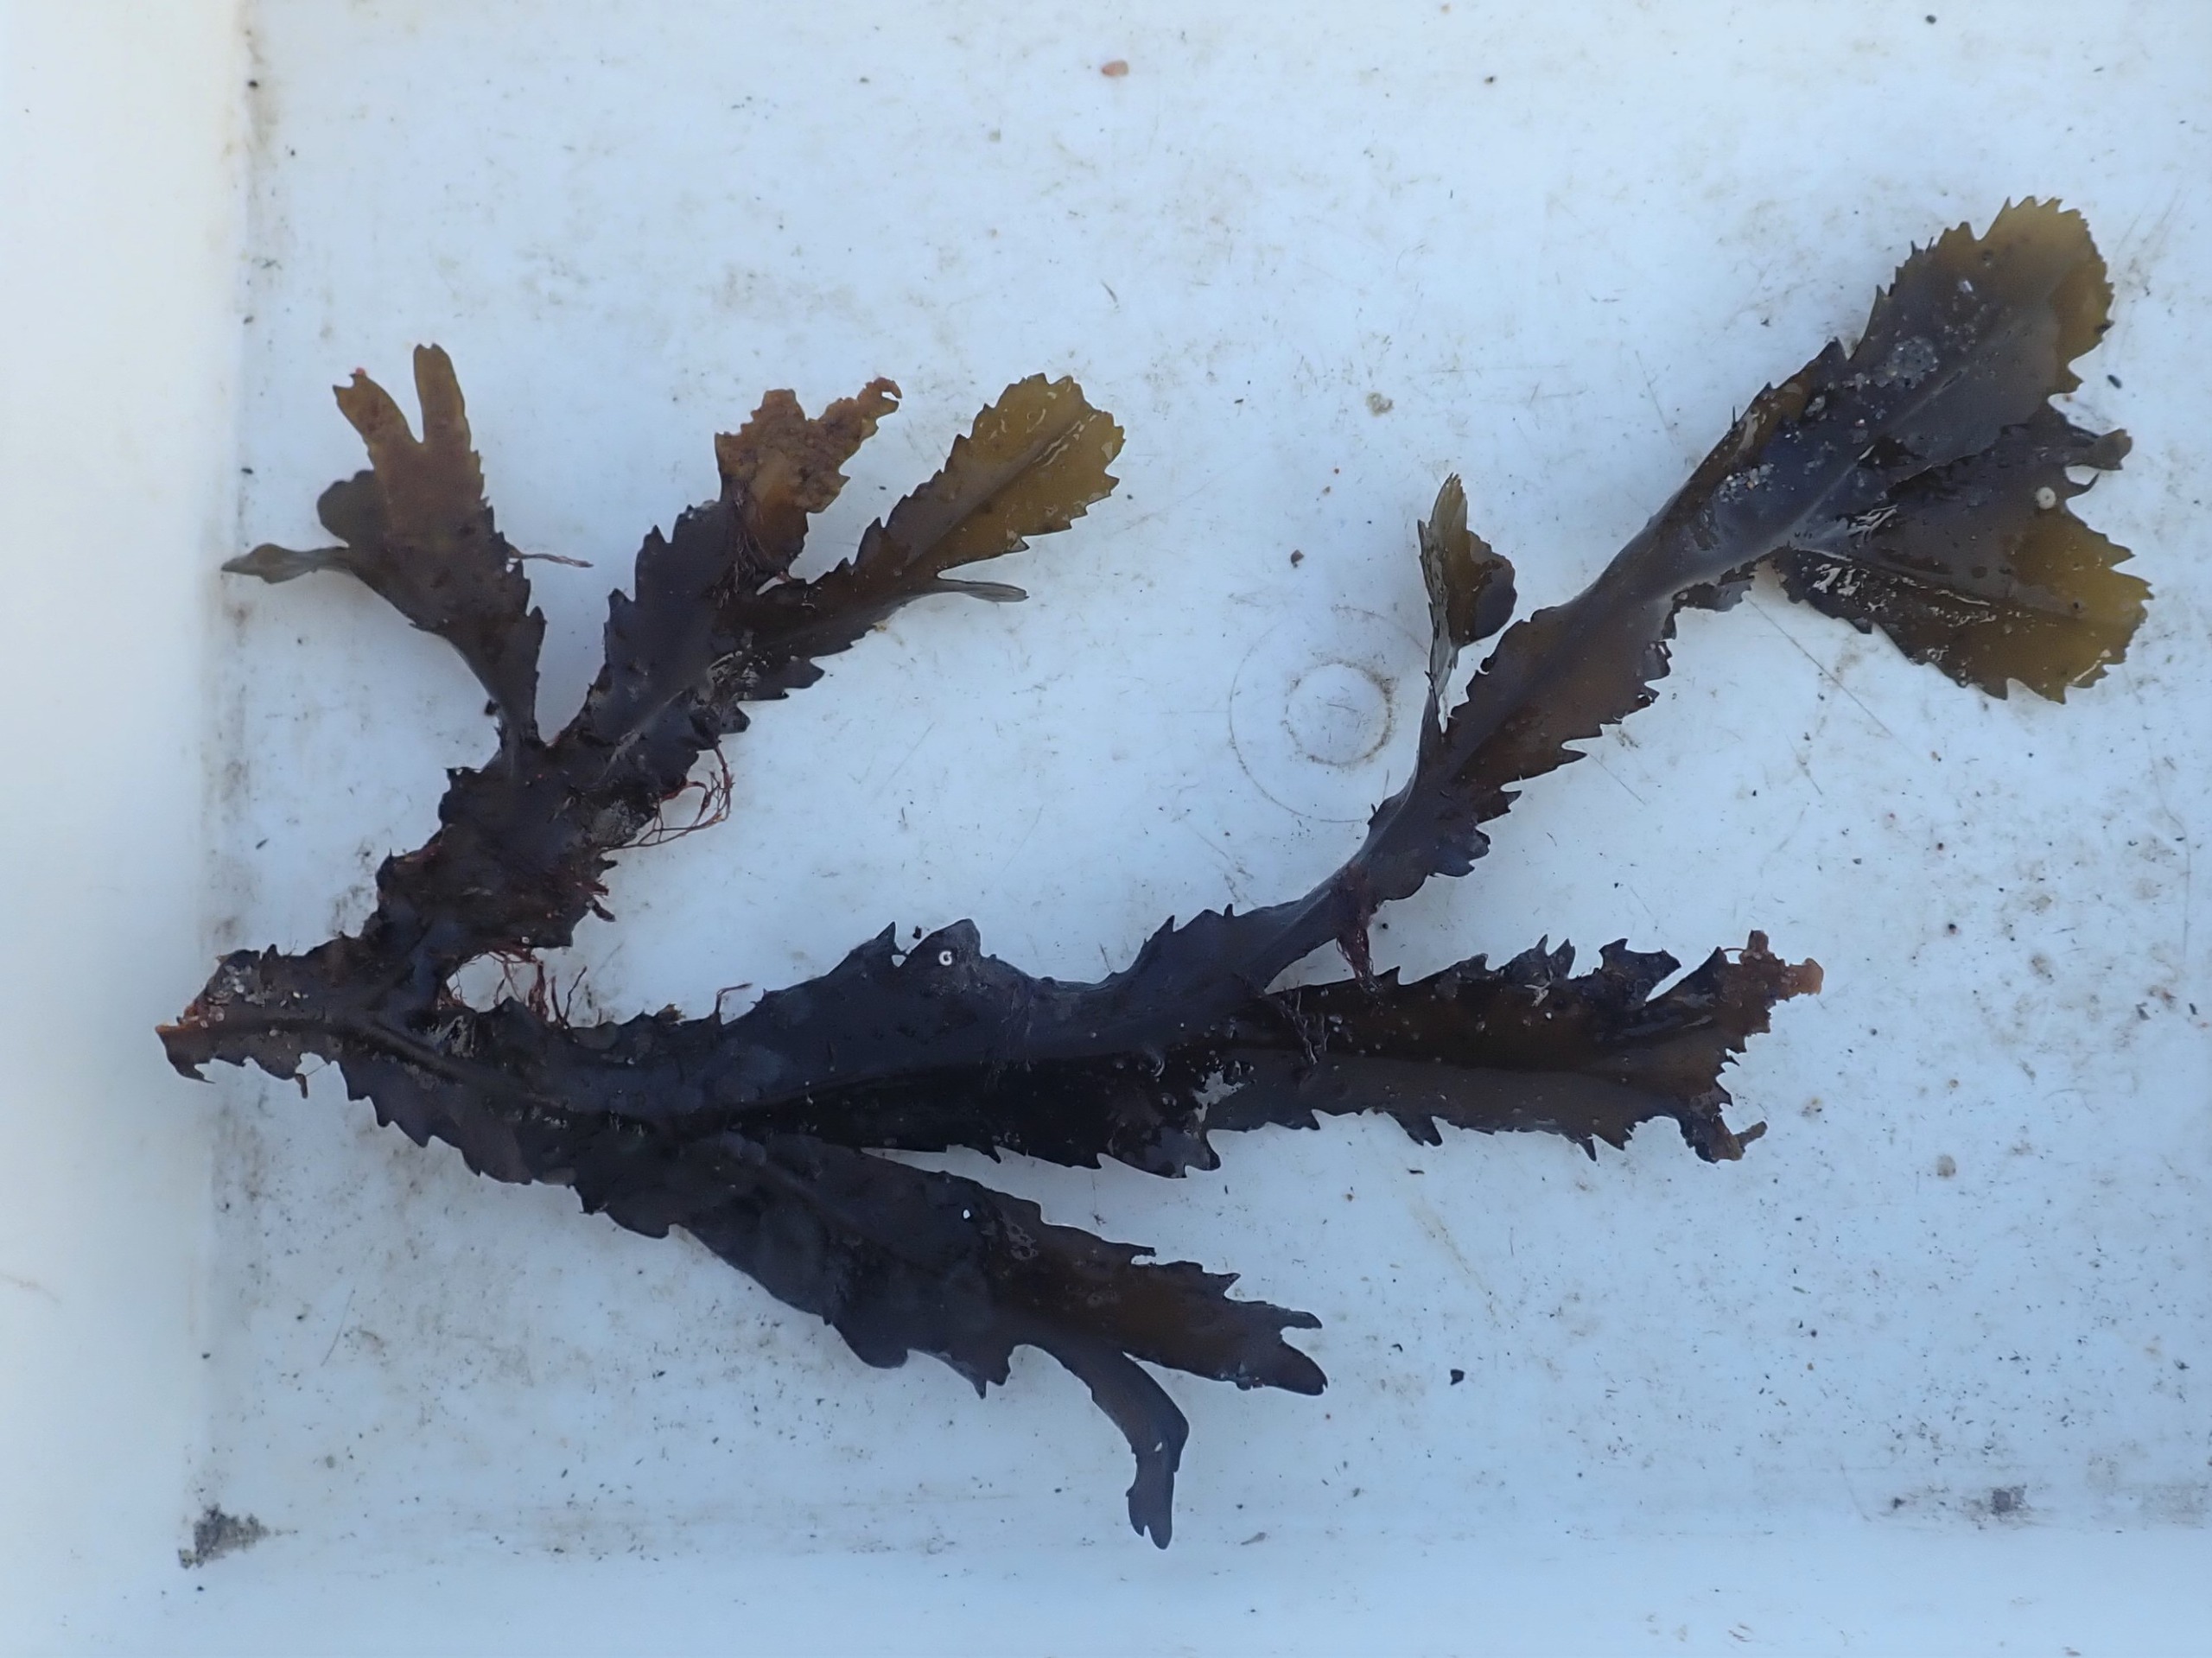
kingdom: Chromista
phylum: Ochrophyta
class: Phaeophyceae
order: Fucales
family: Fucaceae
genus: Fucus
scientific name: Fucus serratus
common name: Savtang
